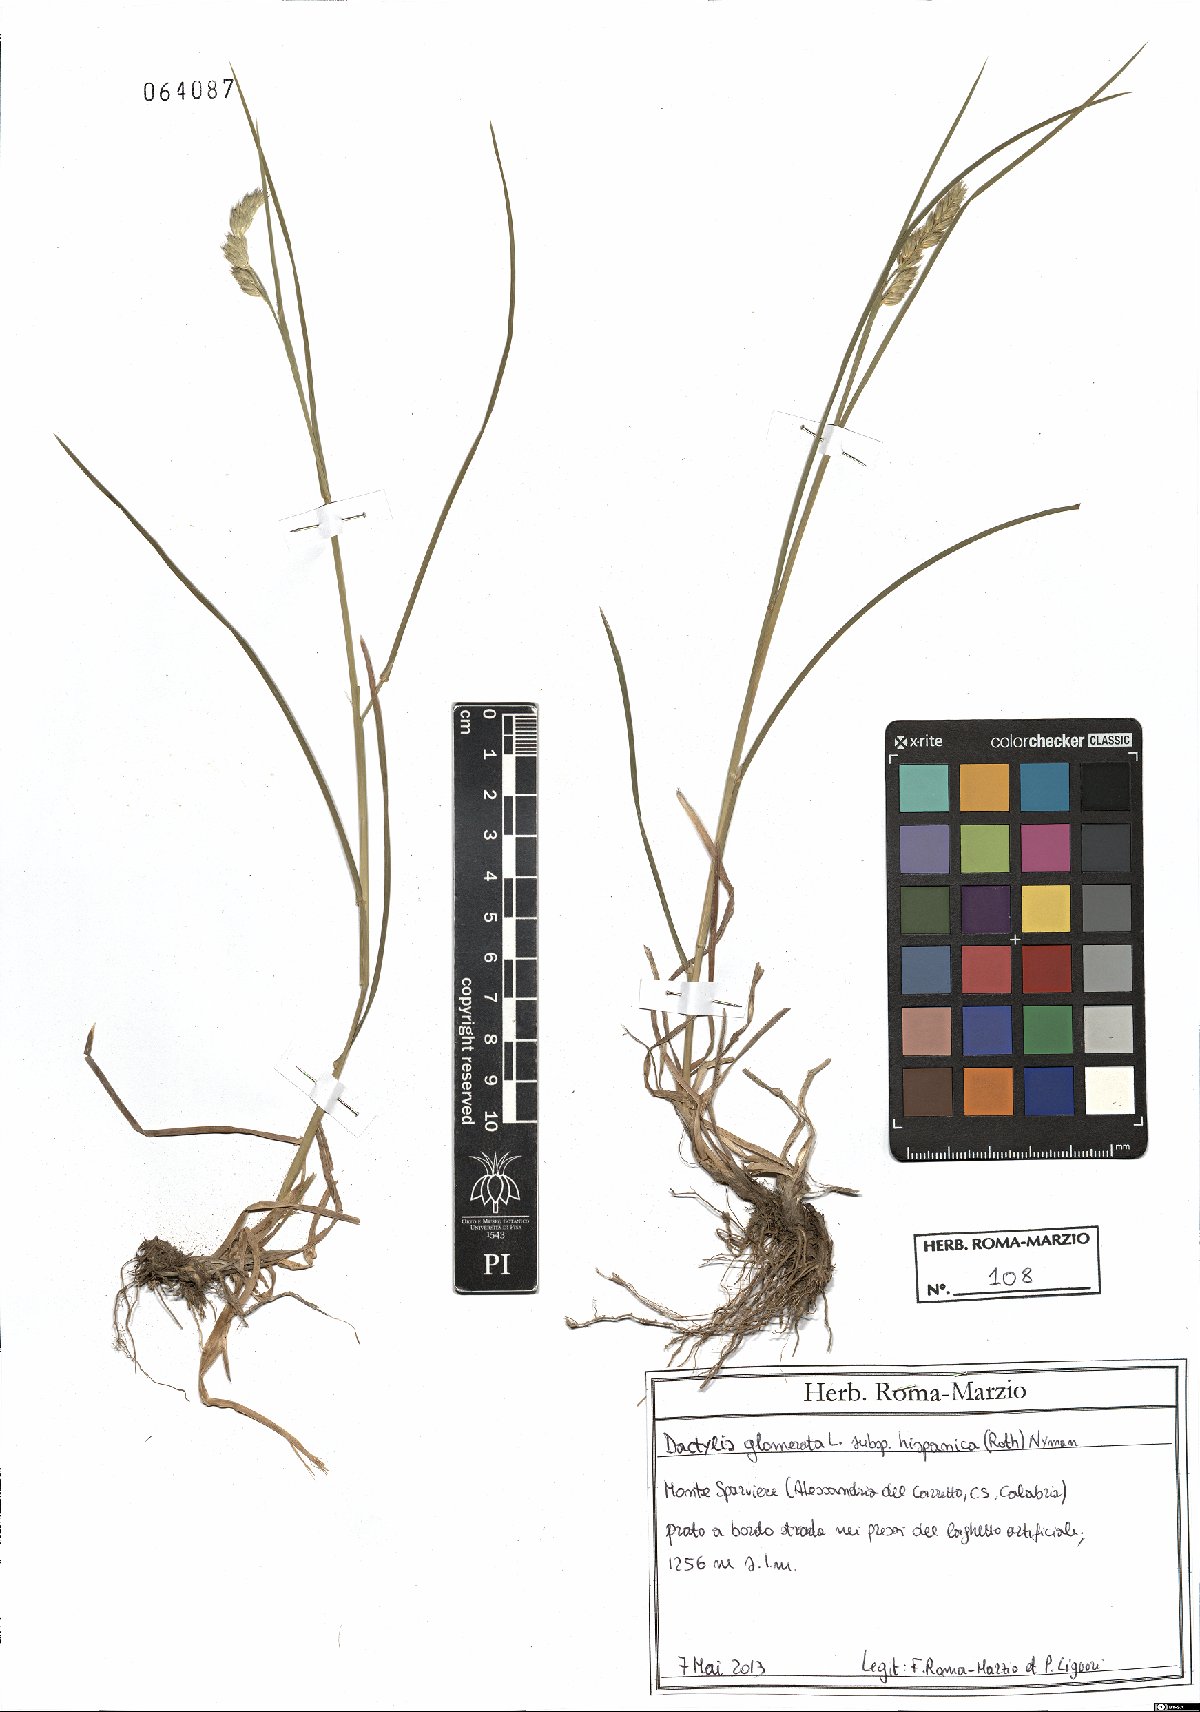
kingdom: Plantae
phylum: Tracheophyta
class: Liliopsida
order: Poales
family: Poaceae
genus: Dactylis
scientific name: Dactylis glomerata
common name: Orchardgrass
